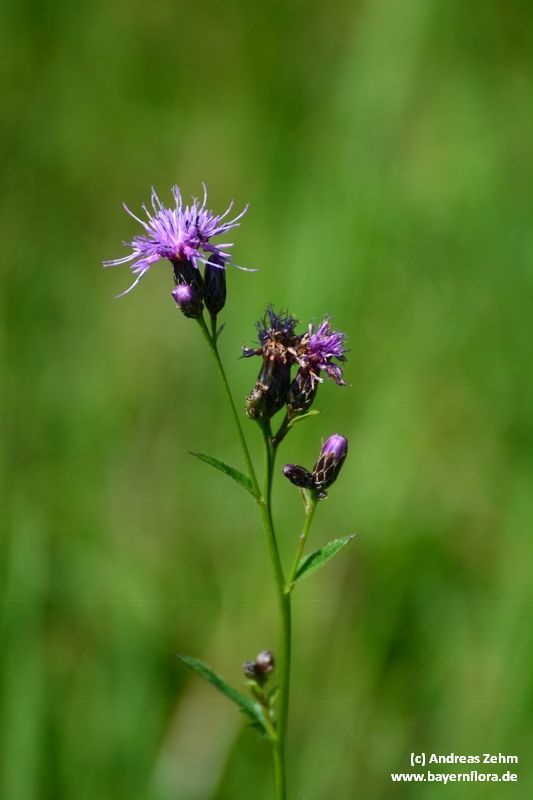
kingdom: Plantae
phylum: Tracheophyta
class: Magnoliopsida
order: Asterales
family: Asteraceae
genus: Serratula
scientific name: Serratula tinctoria
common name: Saw-wort
